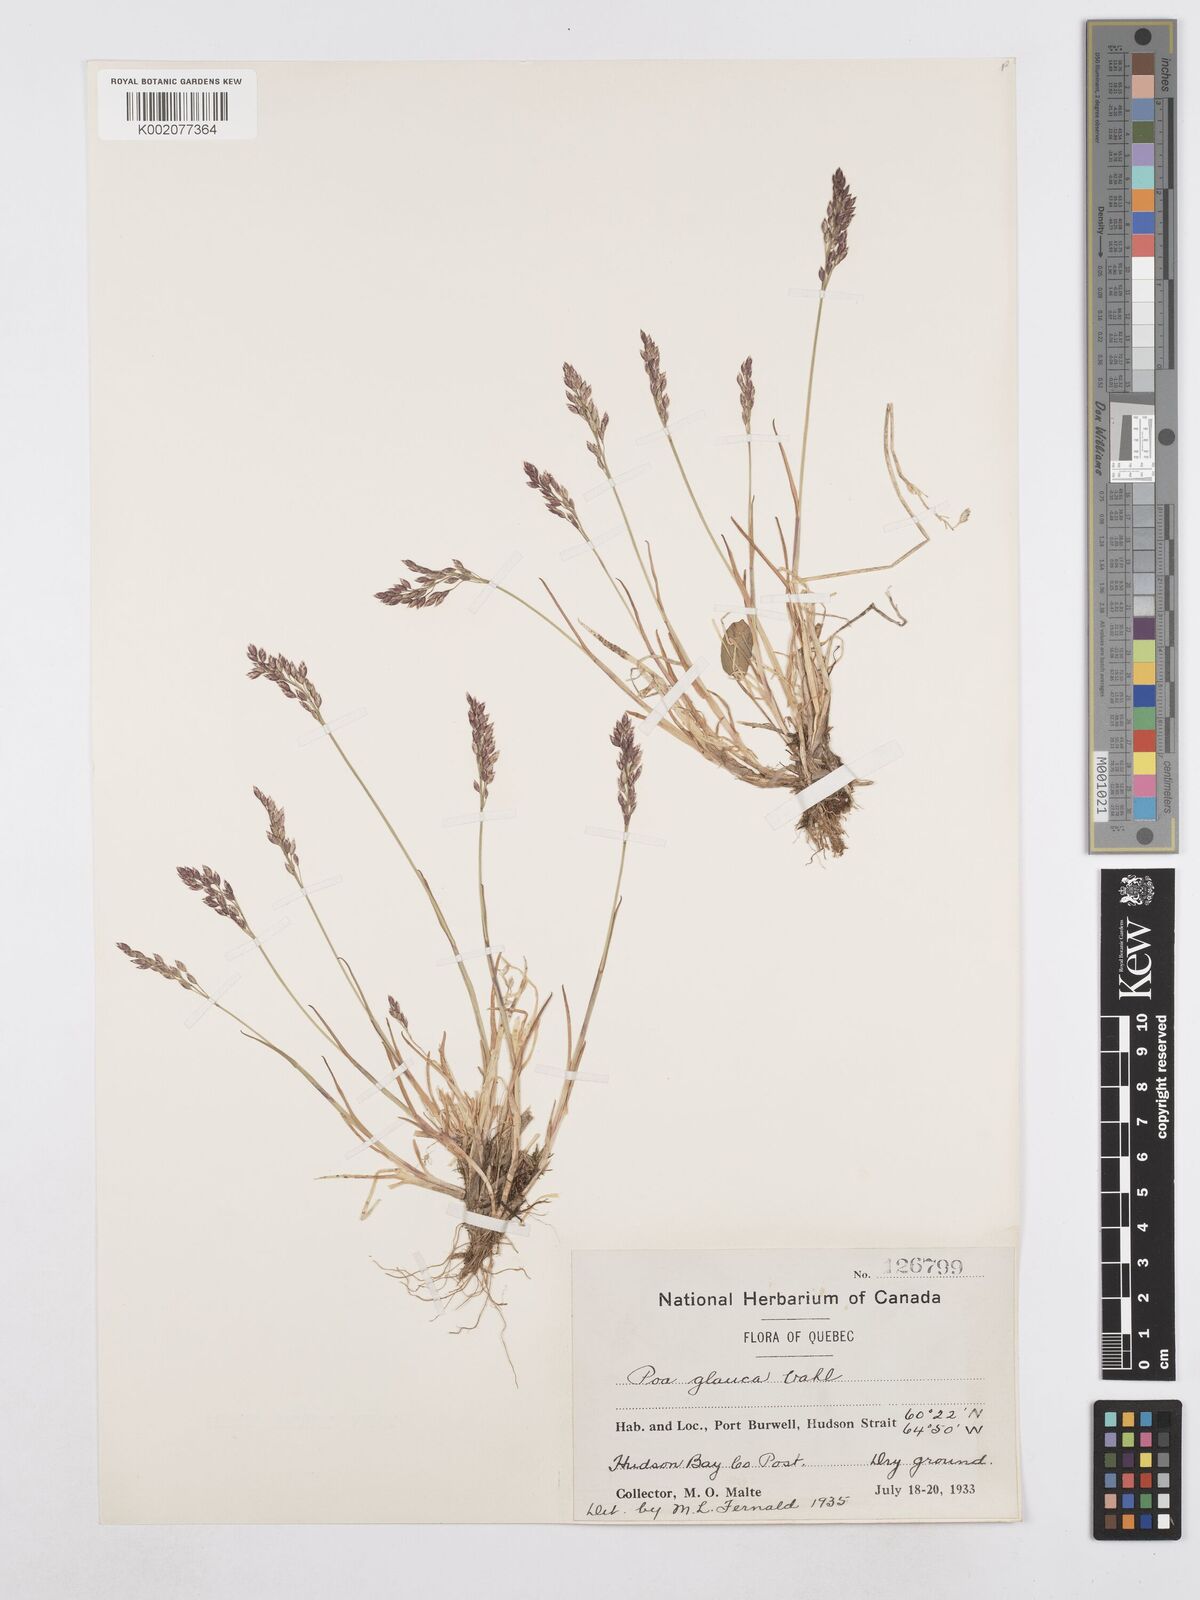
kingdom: Plantae
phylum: Tracheophyta
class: Liliopsida
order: Poales
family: Poaceae
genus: Poa
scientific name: Poa glauca
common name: Glaucous bluegrass
